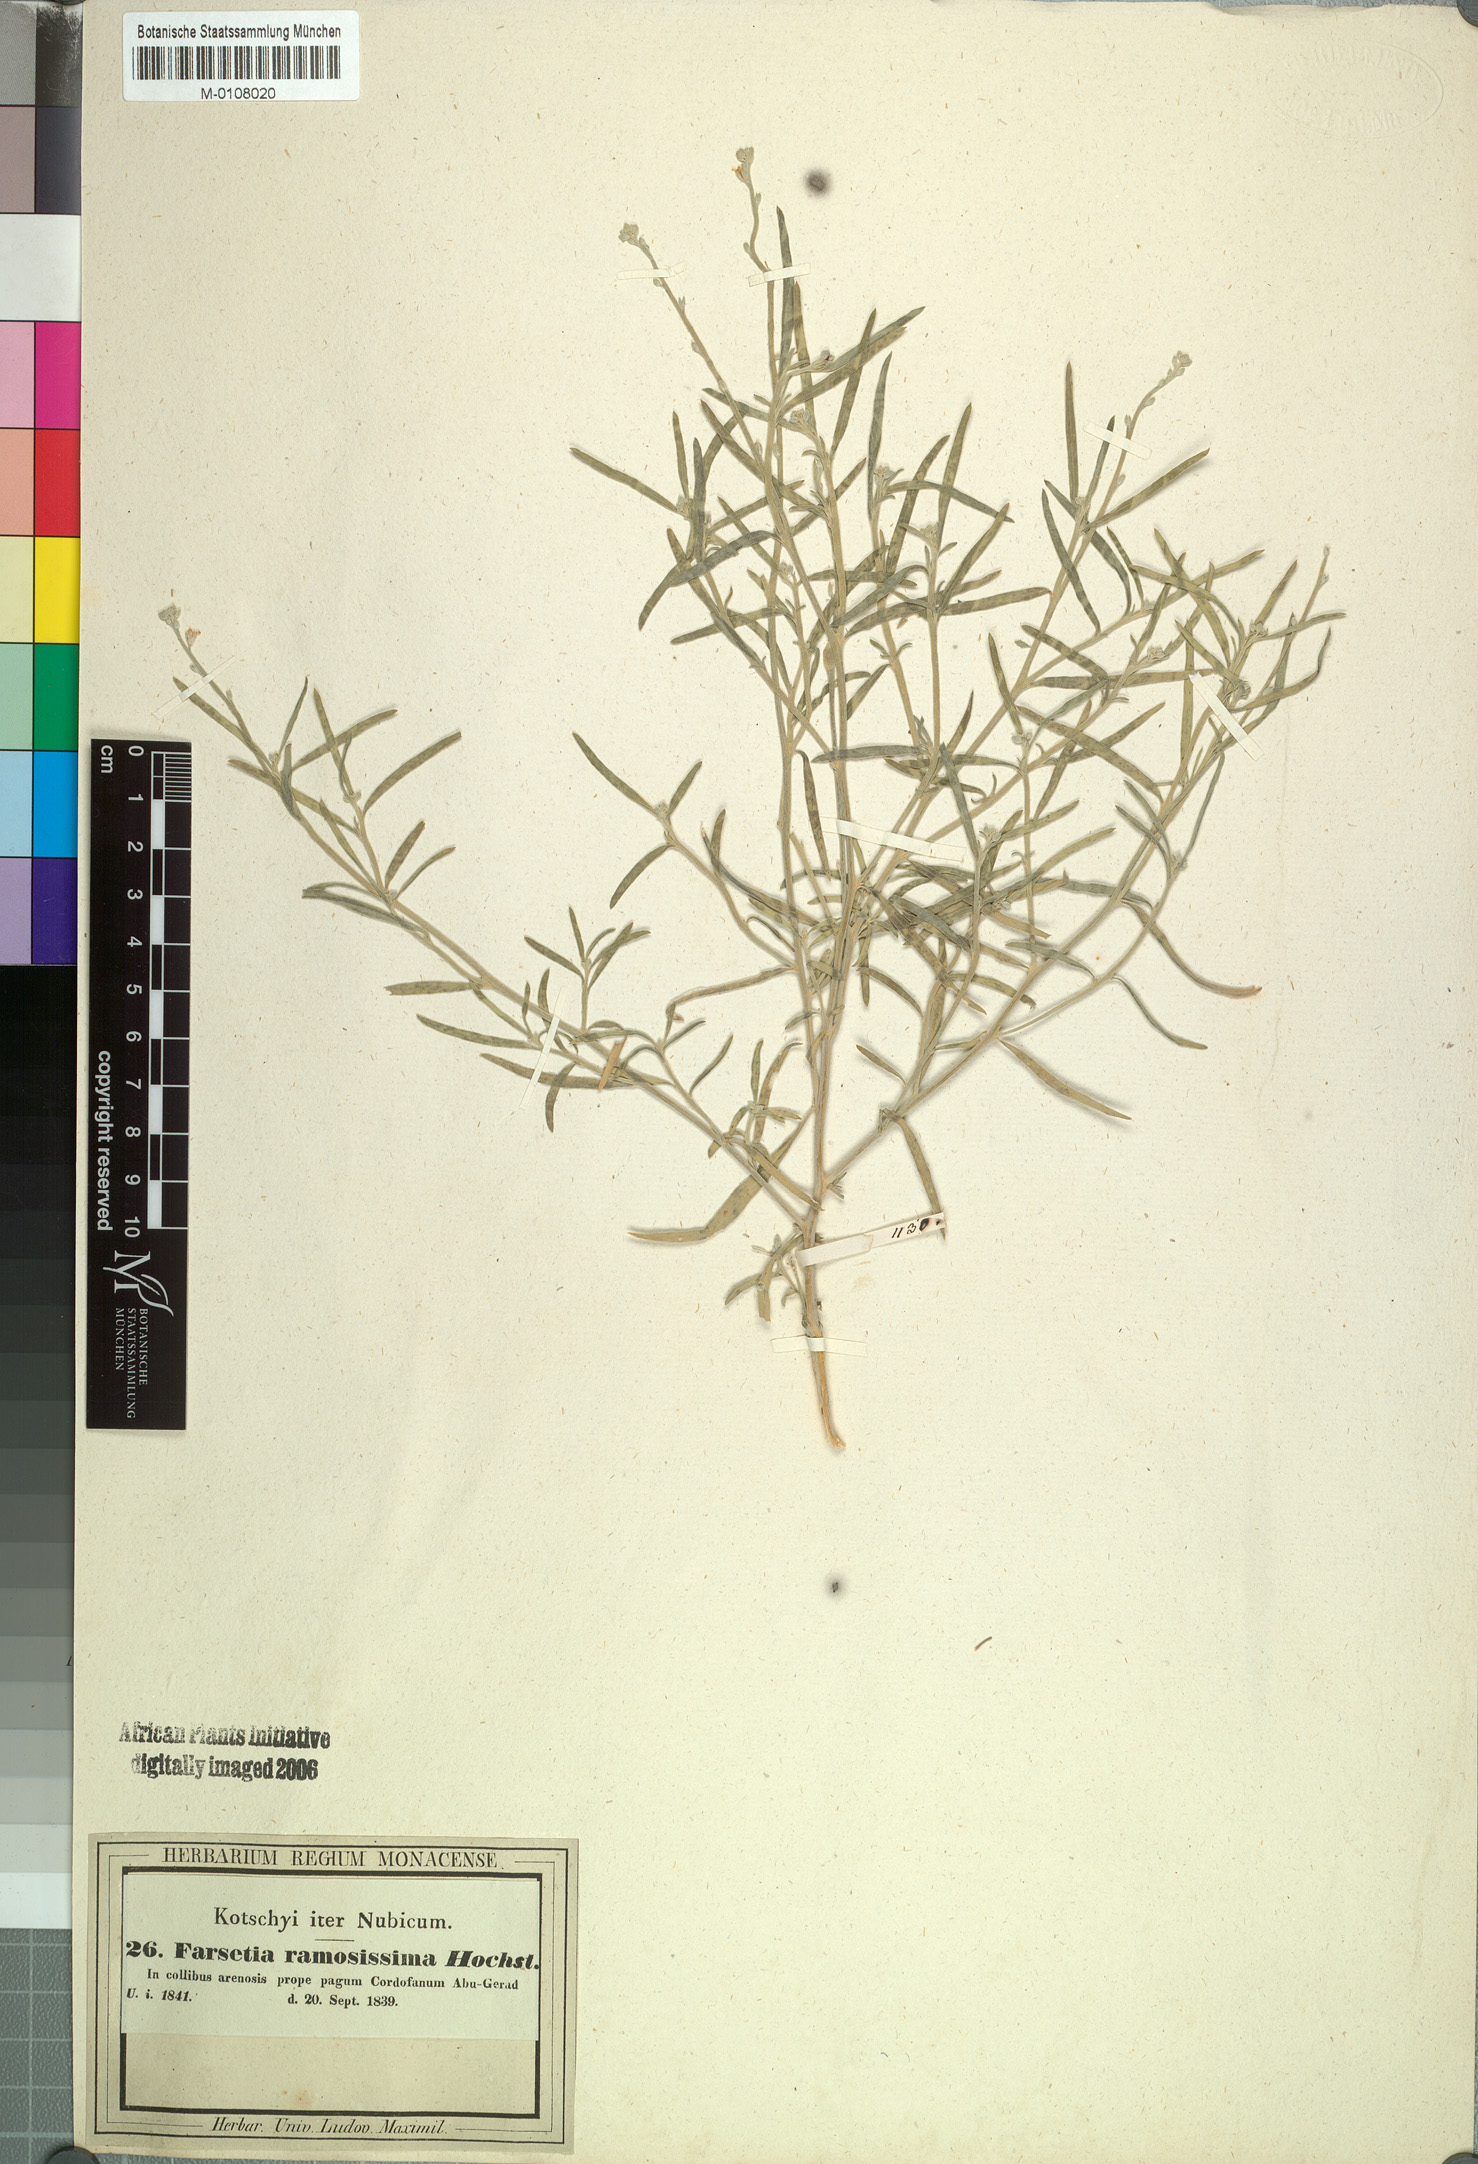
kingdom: Plantae
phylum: Tracheophyta
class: Magnoliopsida
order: Brassicales
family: Brassicaceae
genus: Farsetia
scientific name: Farsetia stylosa
